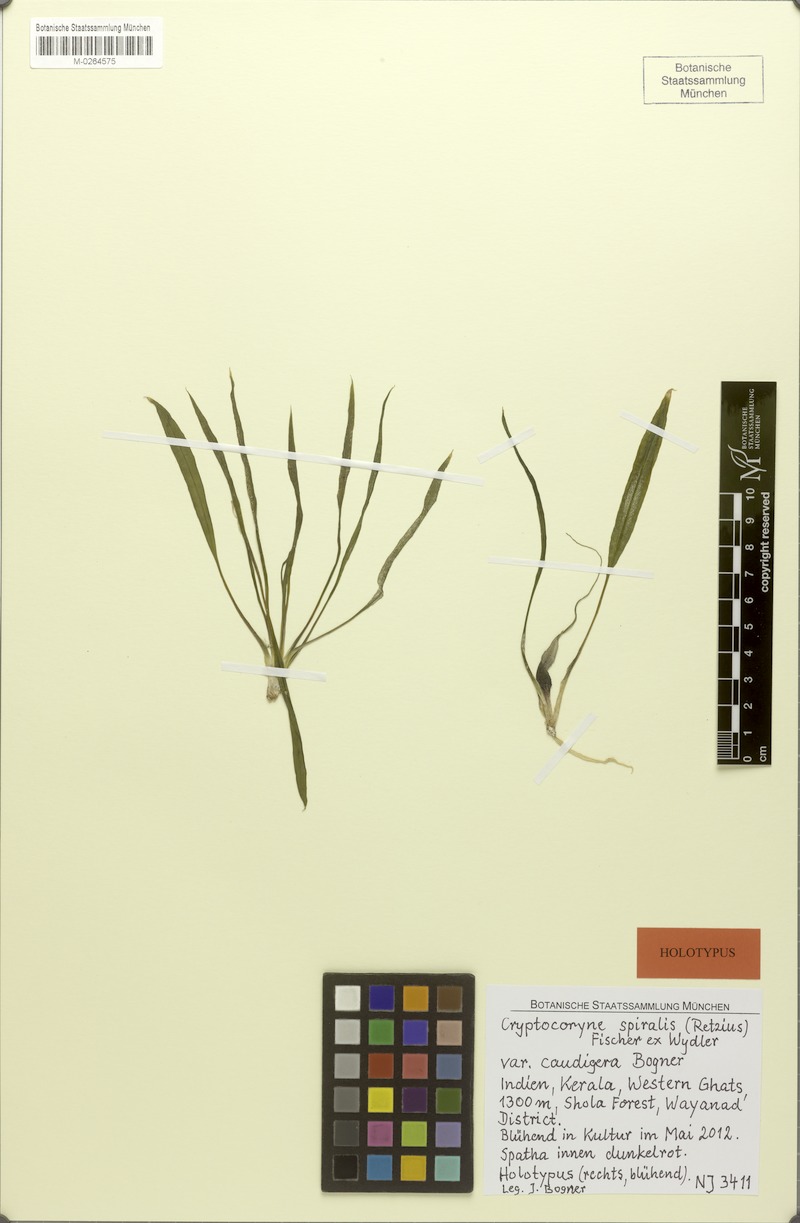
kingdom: Plantae
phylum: Tracheophyta
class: Liliopsida
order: Alismatales
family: Araceae
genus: Cryptocoryne
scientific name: Cryptocoryne spiralis
